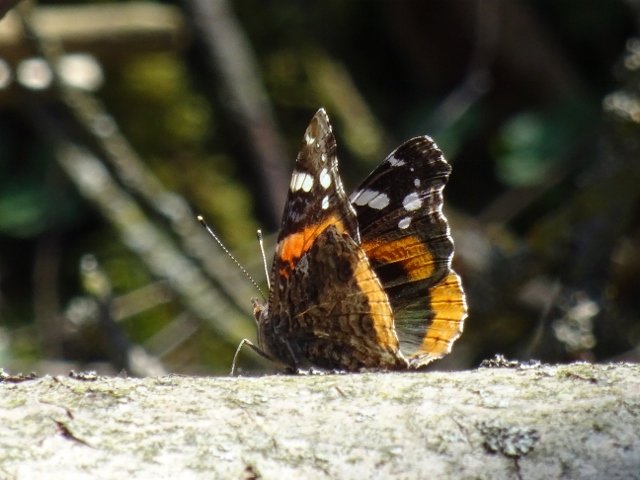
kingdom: Animalia
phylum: Arthropoda
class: Insecta
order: Lepidoptera
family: Nymphalidae
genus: Vanessa
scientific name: Vanessa atalanta
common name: Red Admiral
